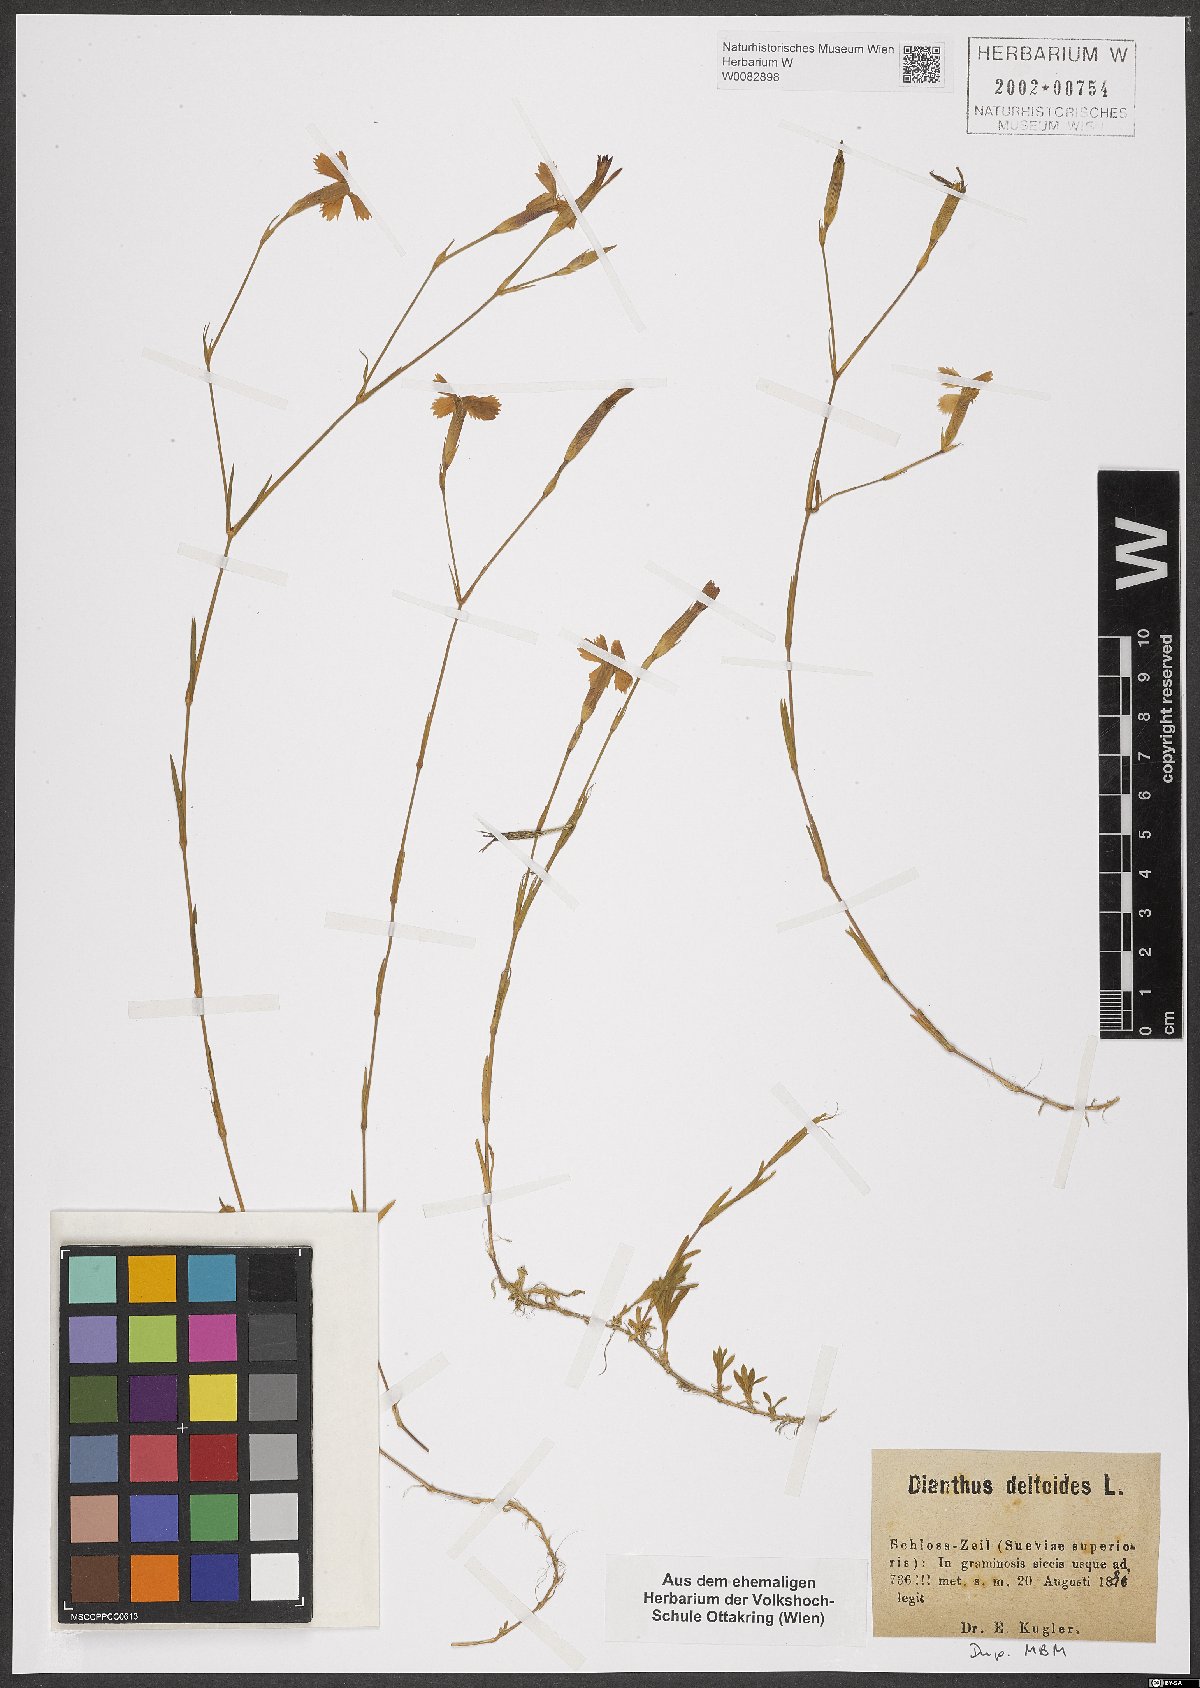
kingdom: Plantae
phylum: Tracheophyta
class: Magnoliopsida
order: Caryophyllales
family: Caryophyllaceae
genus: Dianthus
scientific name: Dianthus deltoides
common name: Maiden pink
